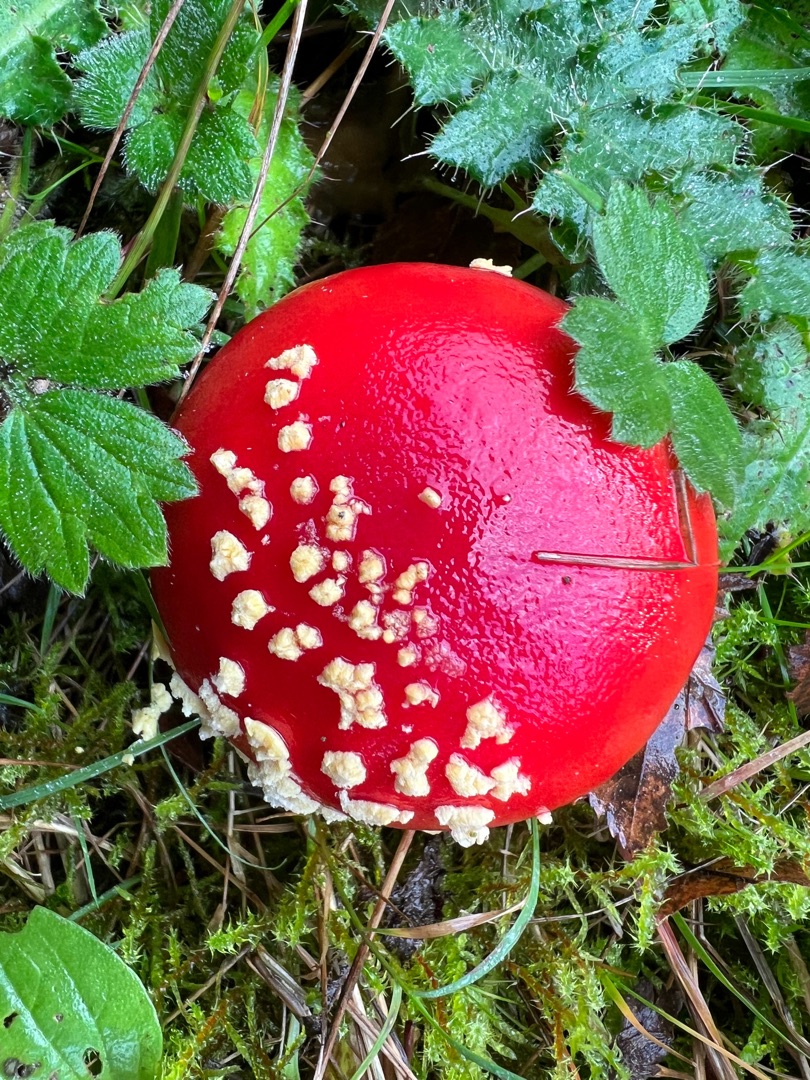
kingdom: Fungi
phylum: Basidiomycota
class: Agaricomycetes
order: Agaricales
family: Amanitaceae
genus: Amanita
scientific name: Amanita muscaria
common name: Rød fluesvamp
